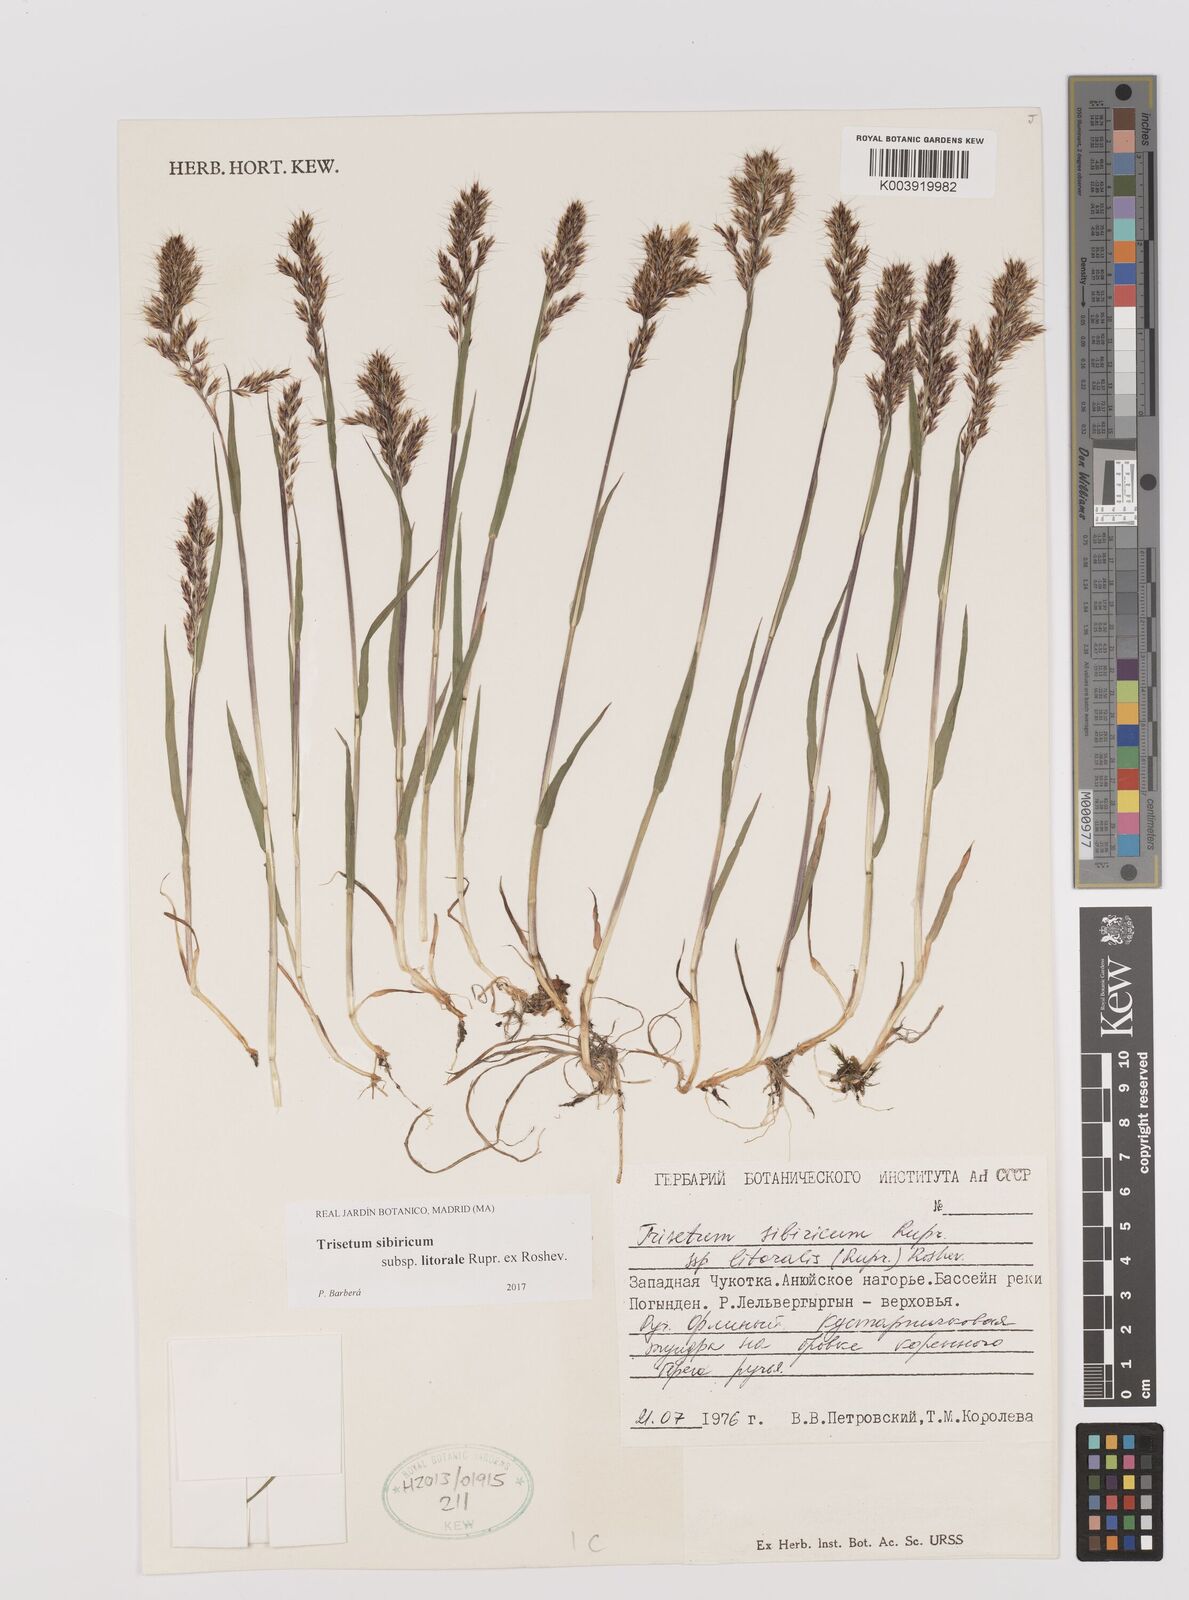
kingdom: Plantae
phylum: Tracheophyta
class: Liliopsida
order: Poales
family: Poaceae
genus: Sibirotrisetum
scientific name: Sibirotrisetum sibiricum
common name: Siberian false oat
